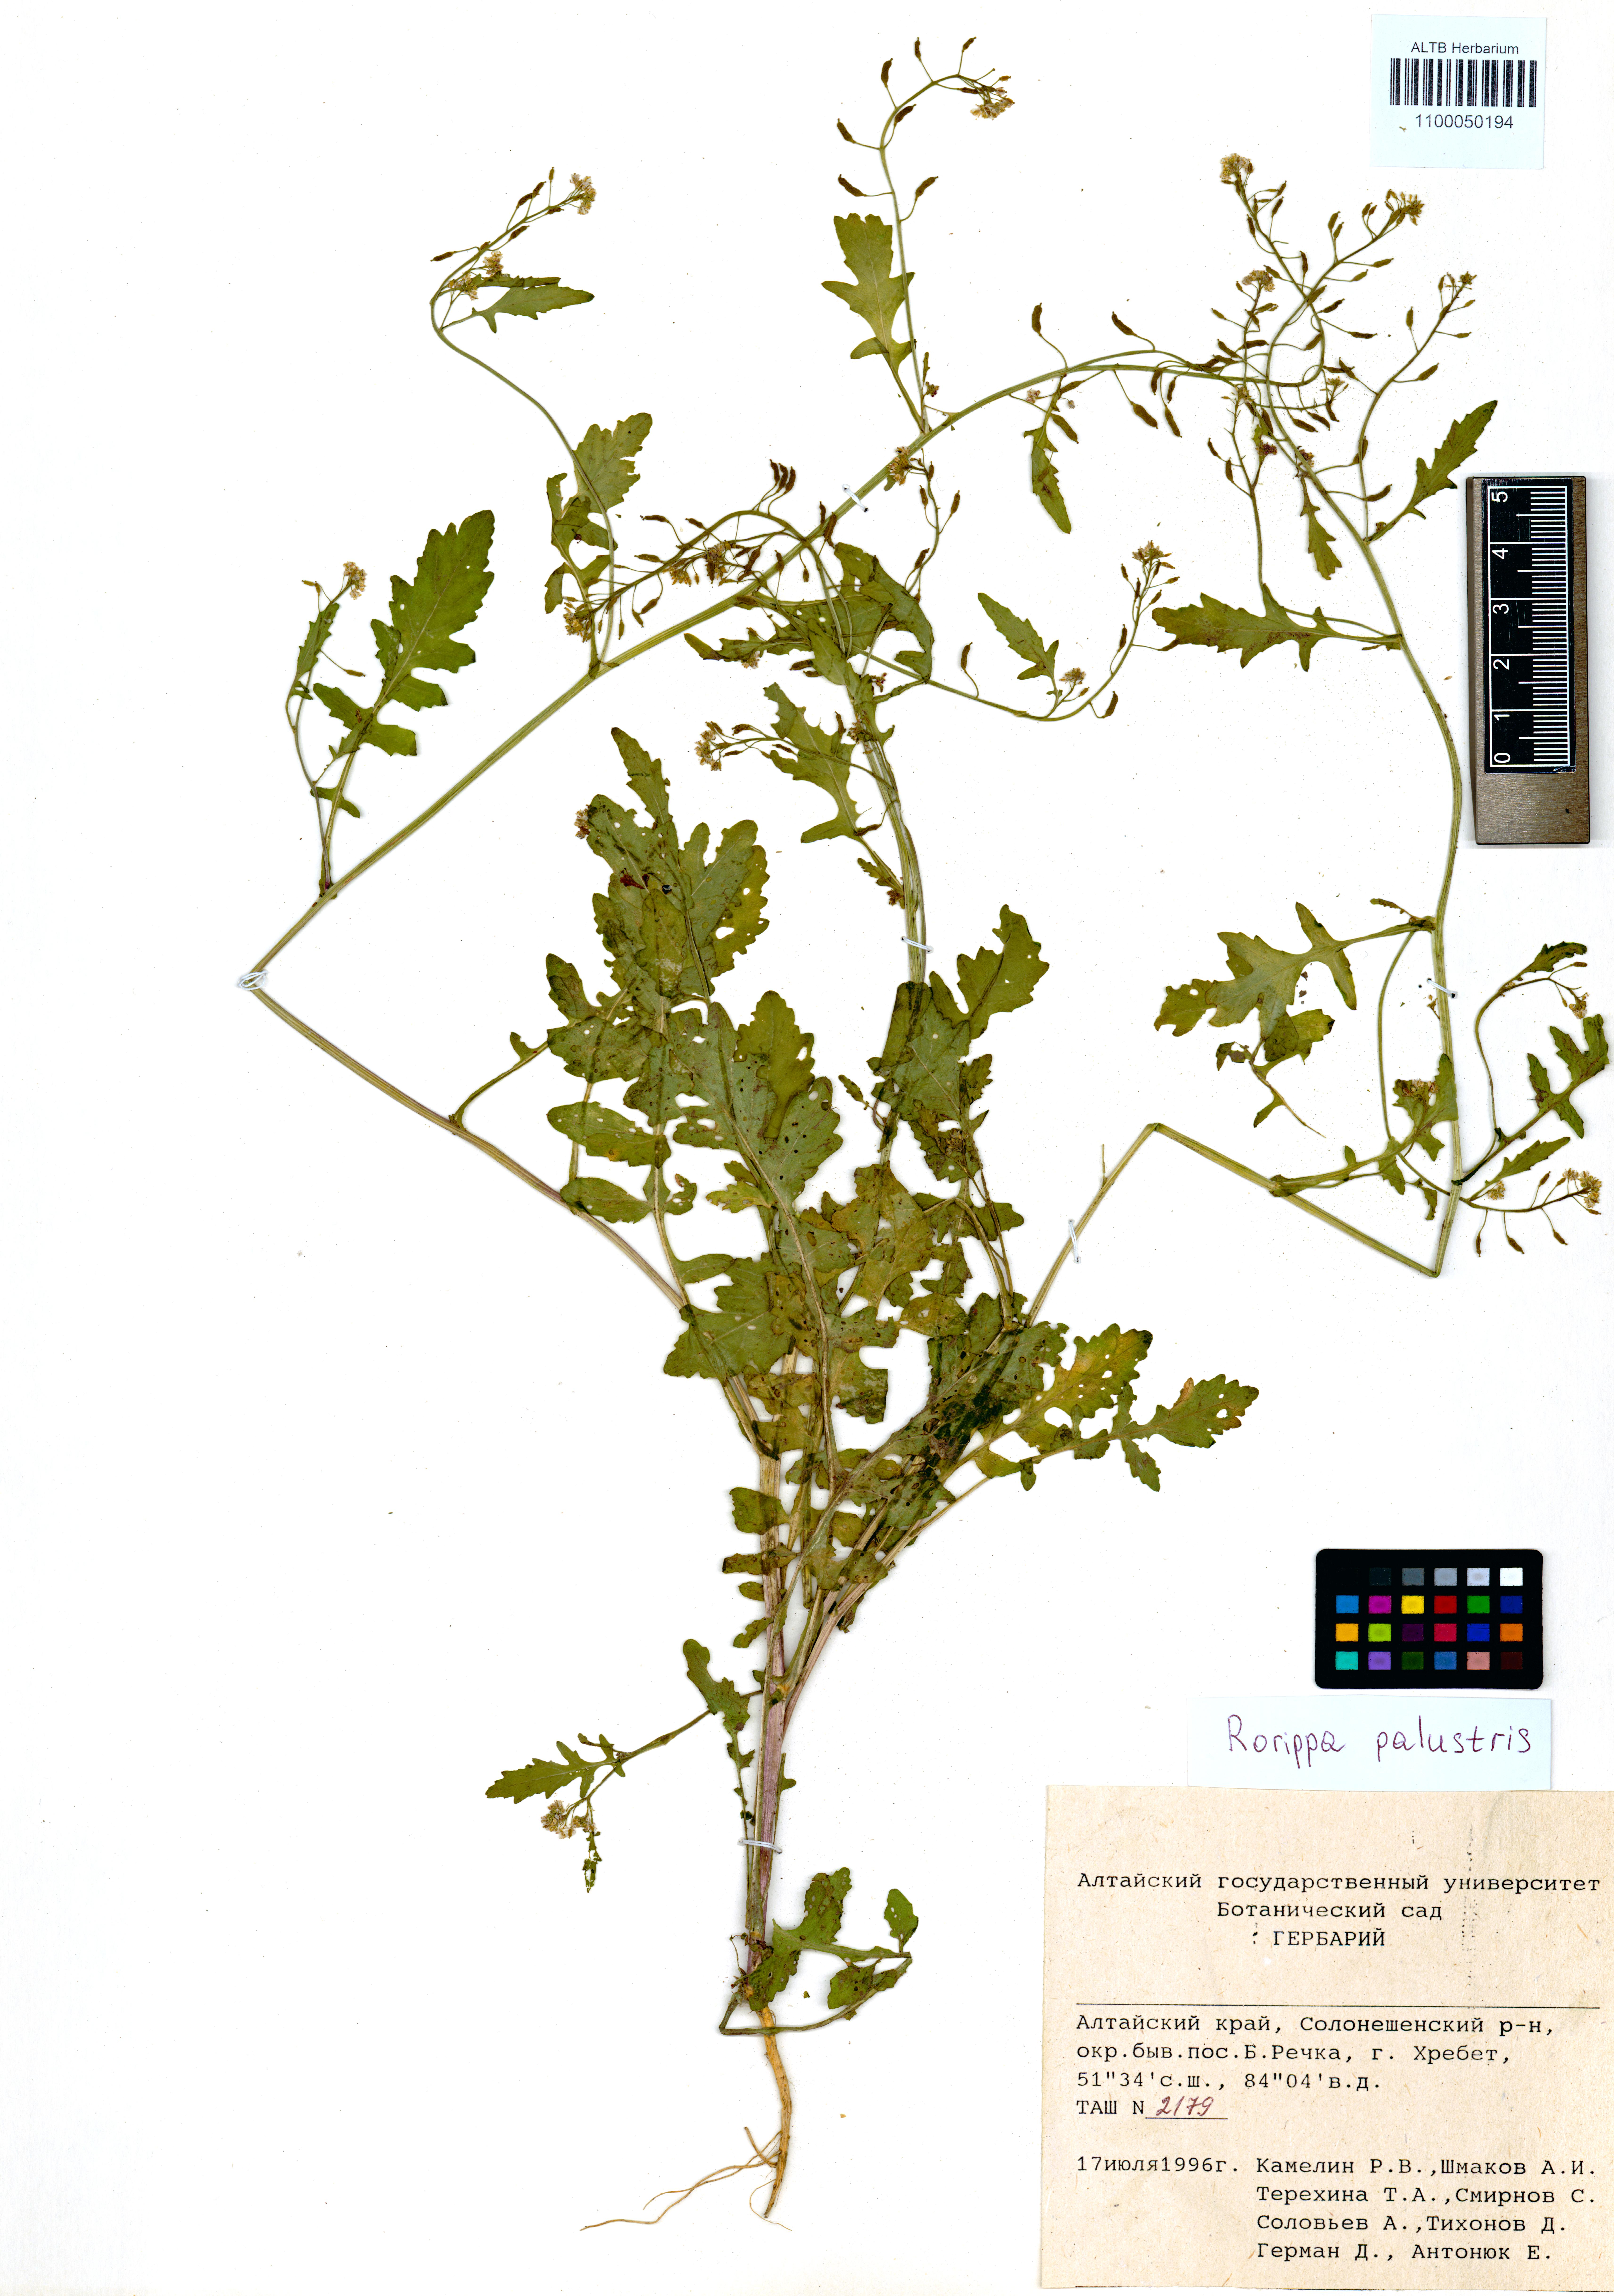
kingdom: Plantae
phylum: Tracheophyta
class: Magnoliopsida
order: Brassicales
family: Brassicaceae
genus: Rorippa
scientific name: Rorippa palustris
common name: Marsh yellow-cress
